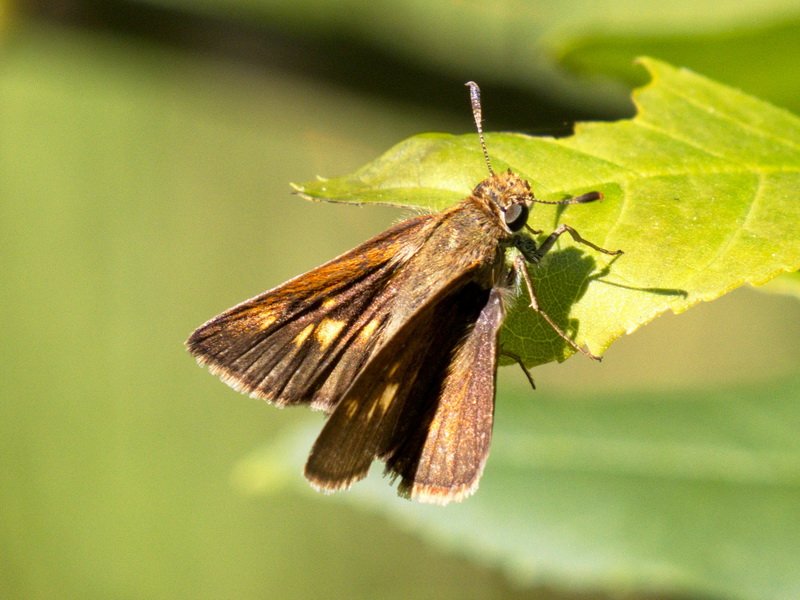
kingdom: Animalia
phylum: Arthropoda
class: Insecta
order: Lepidoptera
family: Hesperiidae
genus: Polites
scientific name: Polites themistocles
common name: Tawny-edged Skipper
